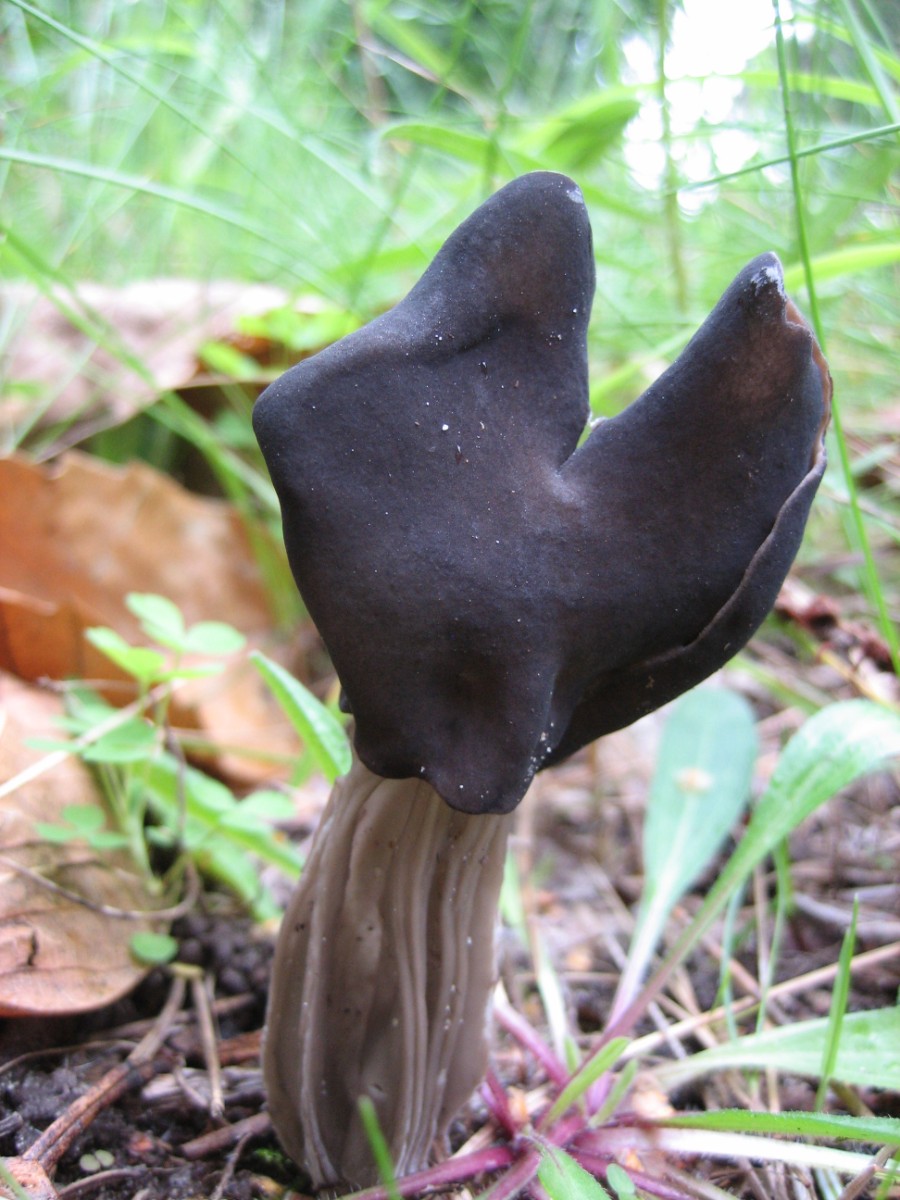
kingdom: Fungi
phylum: Ascomycota
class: Pezizomycetes
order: Pezizales
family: Helvellaceae
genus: Helvella
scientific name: Helvella lacunosa
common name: grubet foldhat
